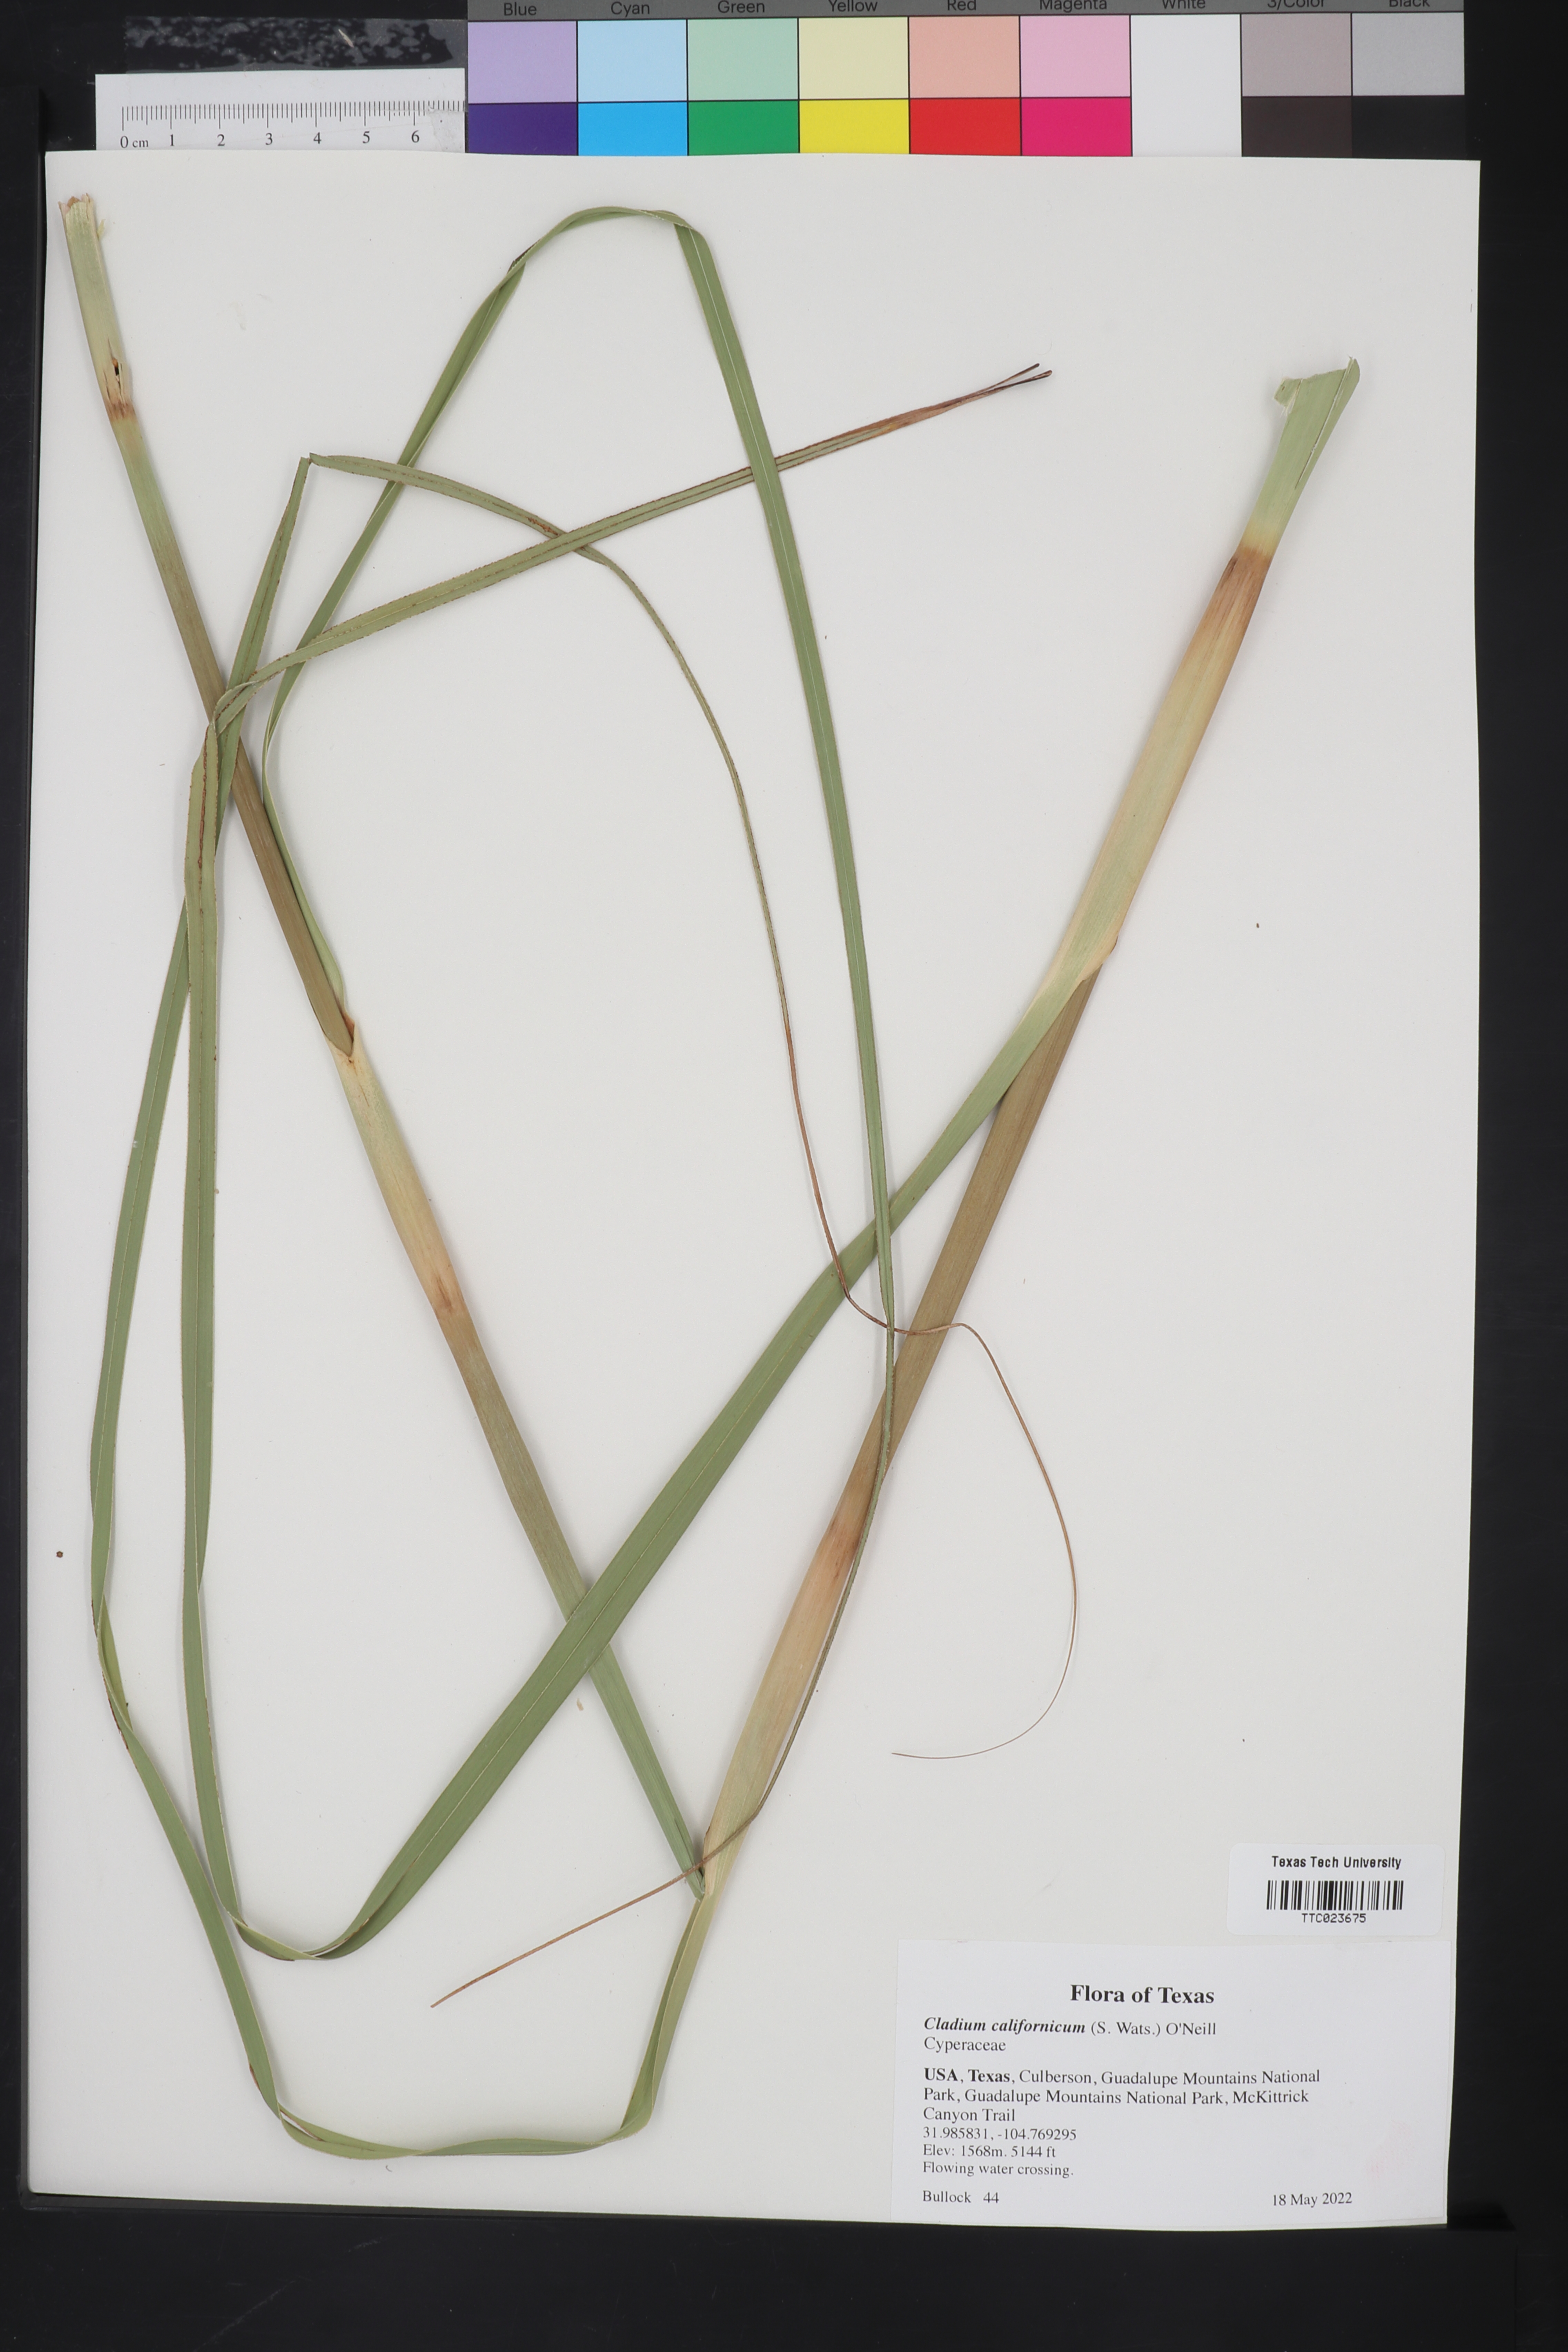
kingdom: Plantae
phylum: Tracheophyta
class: Liliopsida
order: Poales
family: Cyperaceae
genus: Cladium
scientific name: Cladium mariscus
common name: Great fen-sedge
